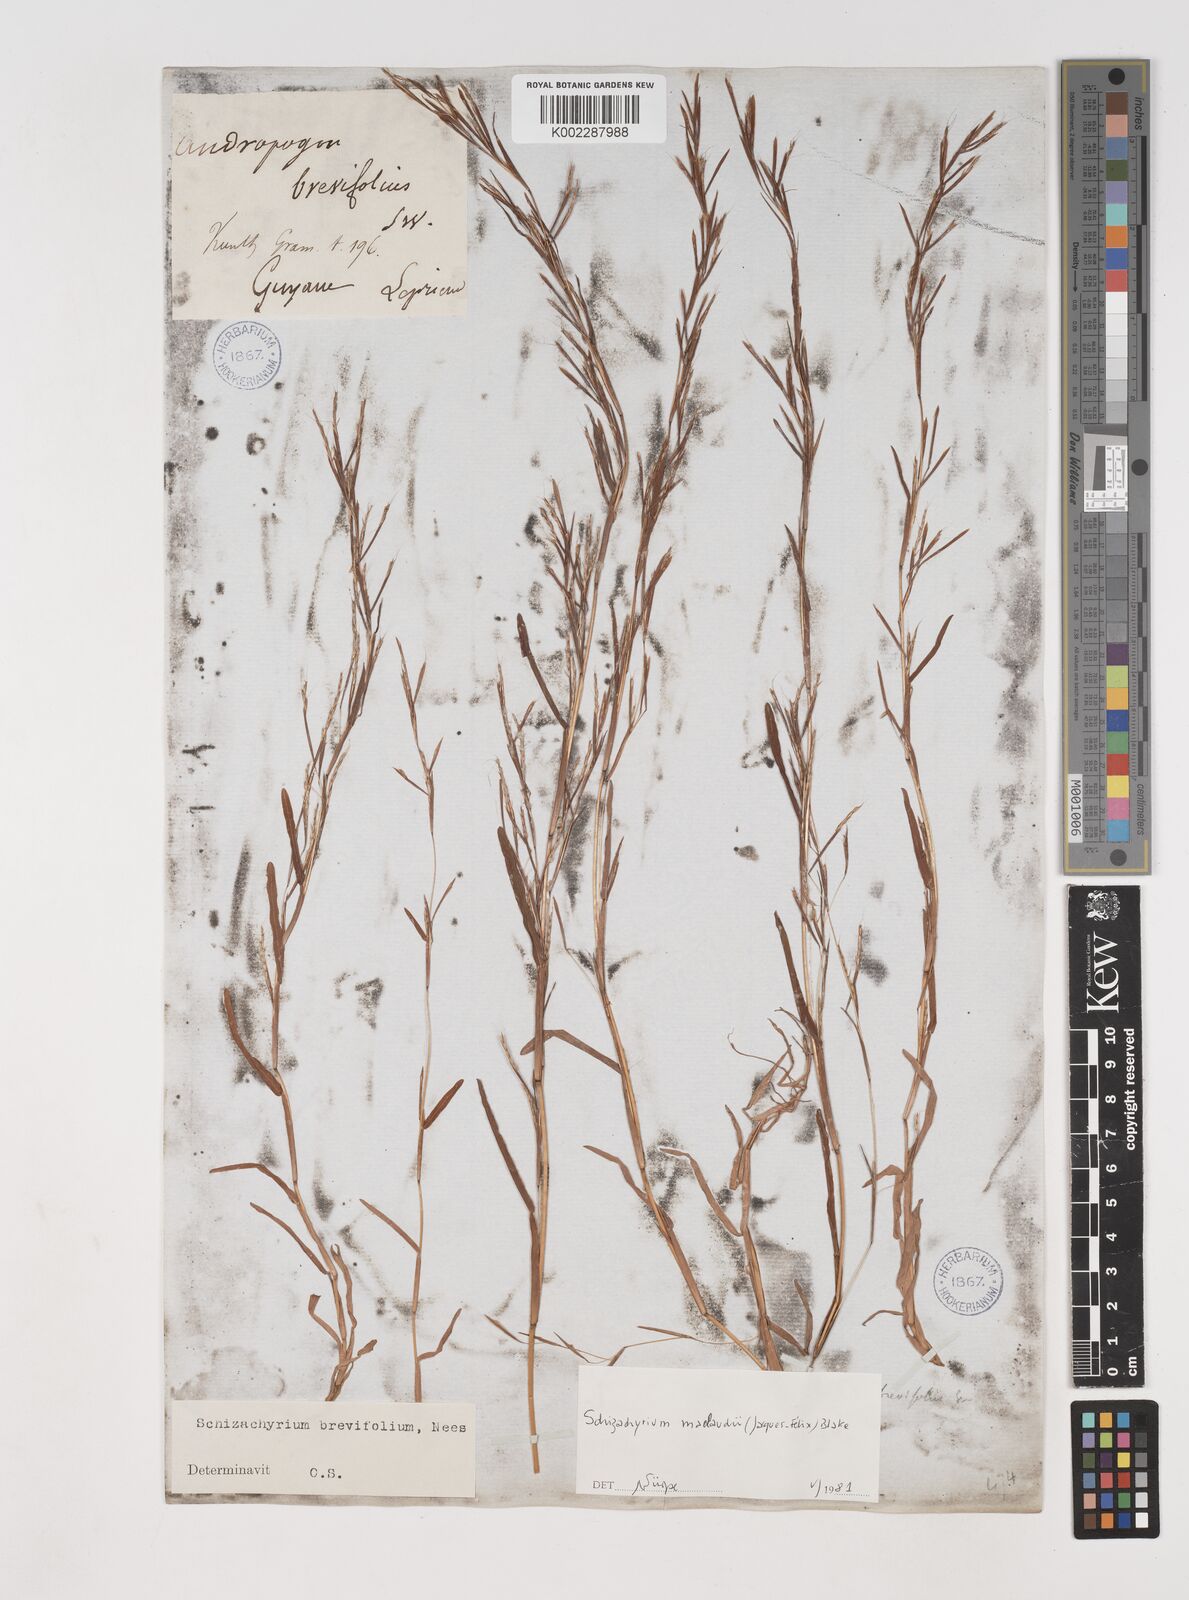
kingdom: Plantae
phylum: Tracheophyta
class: Liliopsida
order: Poales
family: Poaceae
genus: Schizachyrium
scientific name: Schizachyrium maclaudii
